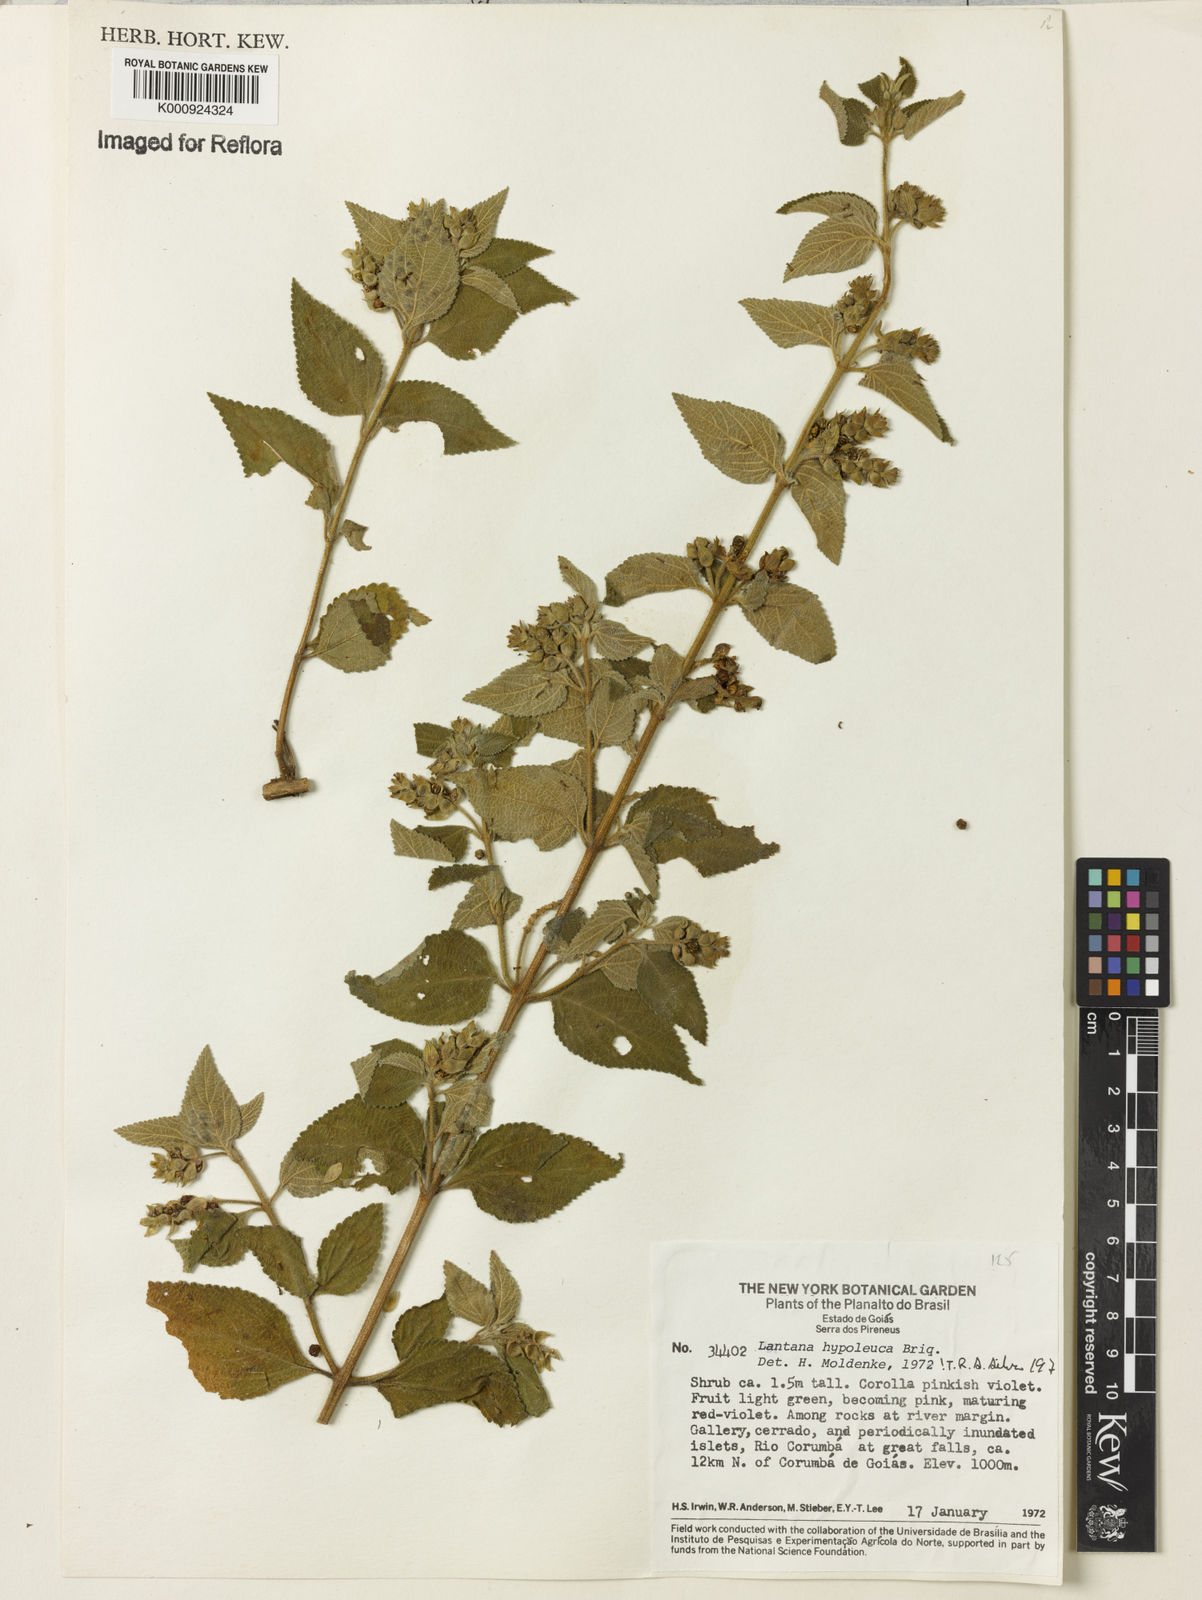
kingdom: Plantae
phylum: Tracheophyta
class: Magnoliopsida
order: Lamiales
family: Verbenaceae
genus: Lantana
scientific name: Lantana hypoleuca
